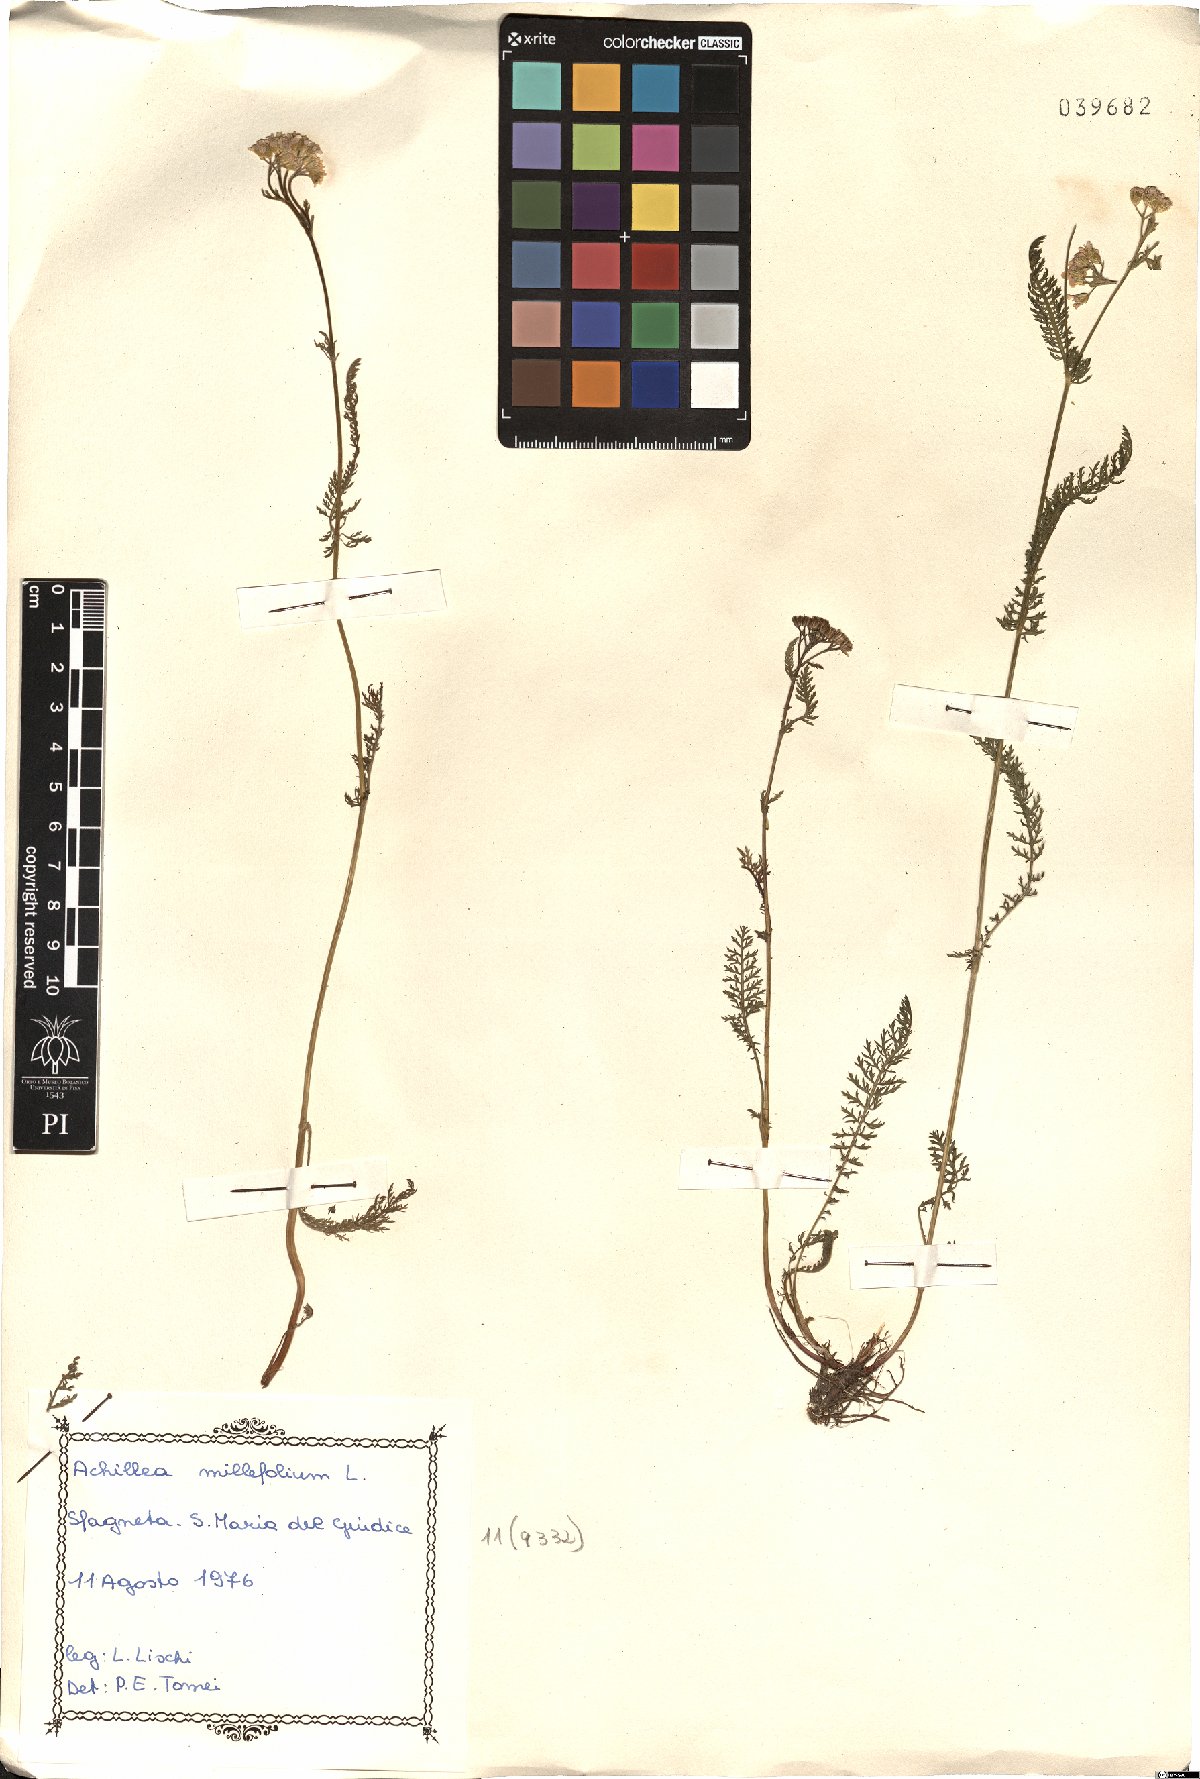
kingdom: Plantae
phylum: Tracheophyta
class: Magnoliopsida
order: Asterales
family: Asteraceae
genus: Achillea
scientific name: Achillea millefolium
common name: Yarrow
